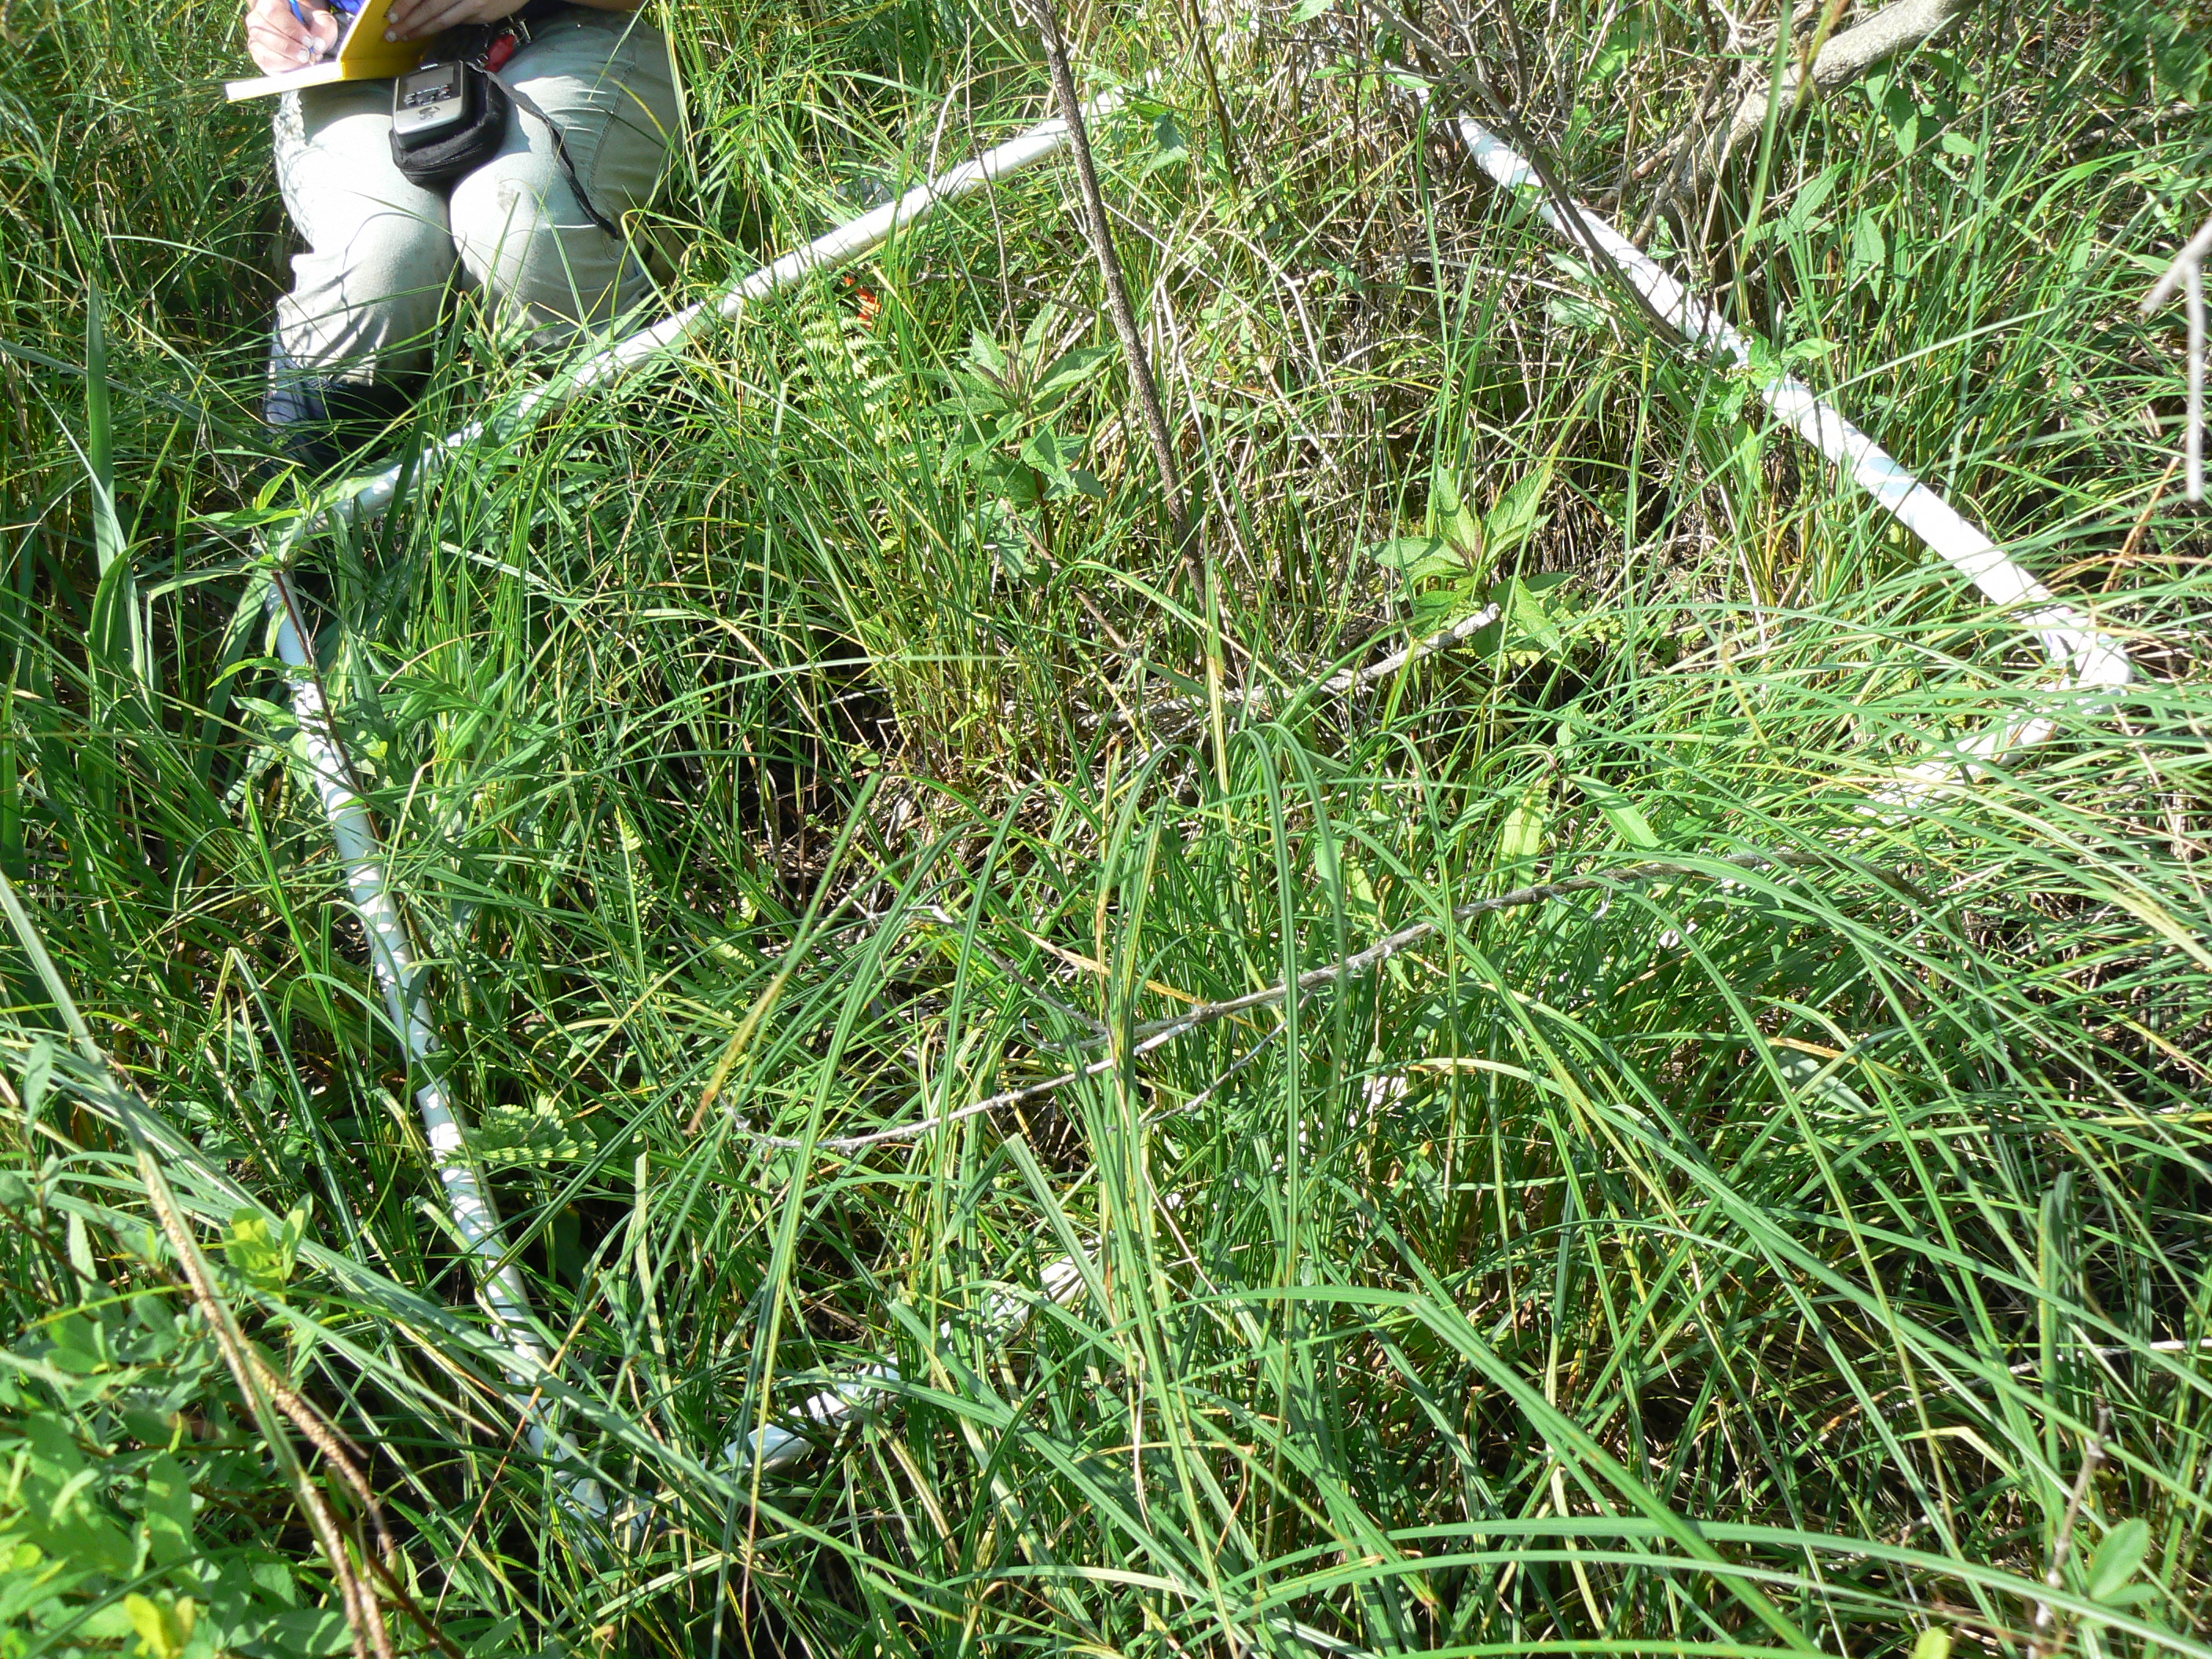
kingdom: Plantae
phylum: Tracheophyta
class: Magnoliopsida
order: Ericales
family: Balsaminaceae
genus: Impatiens
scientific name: Impatiens capensis
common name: Orange balsam
